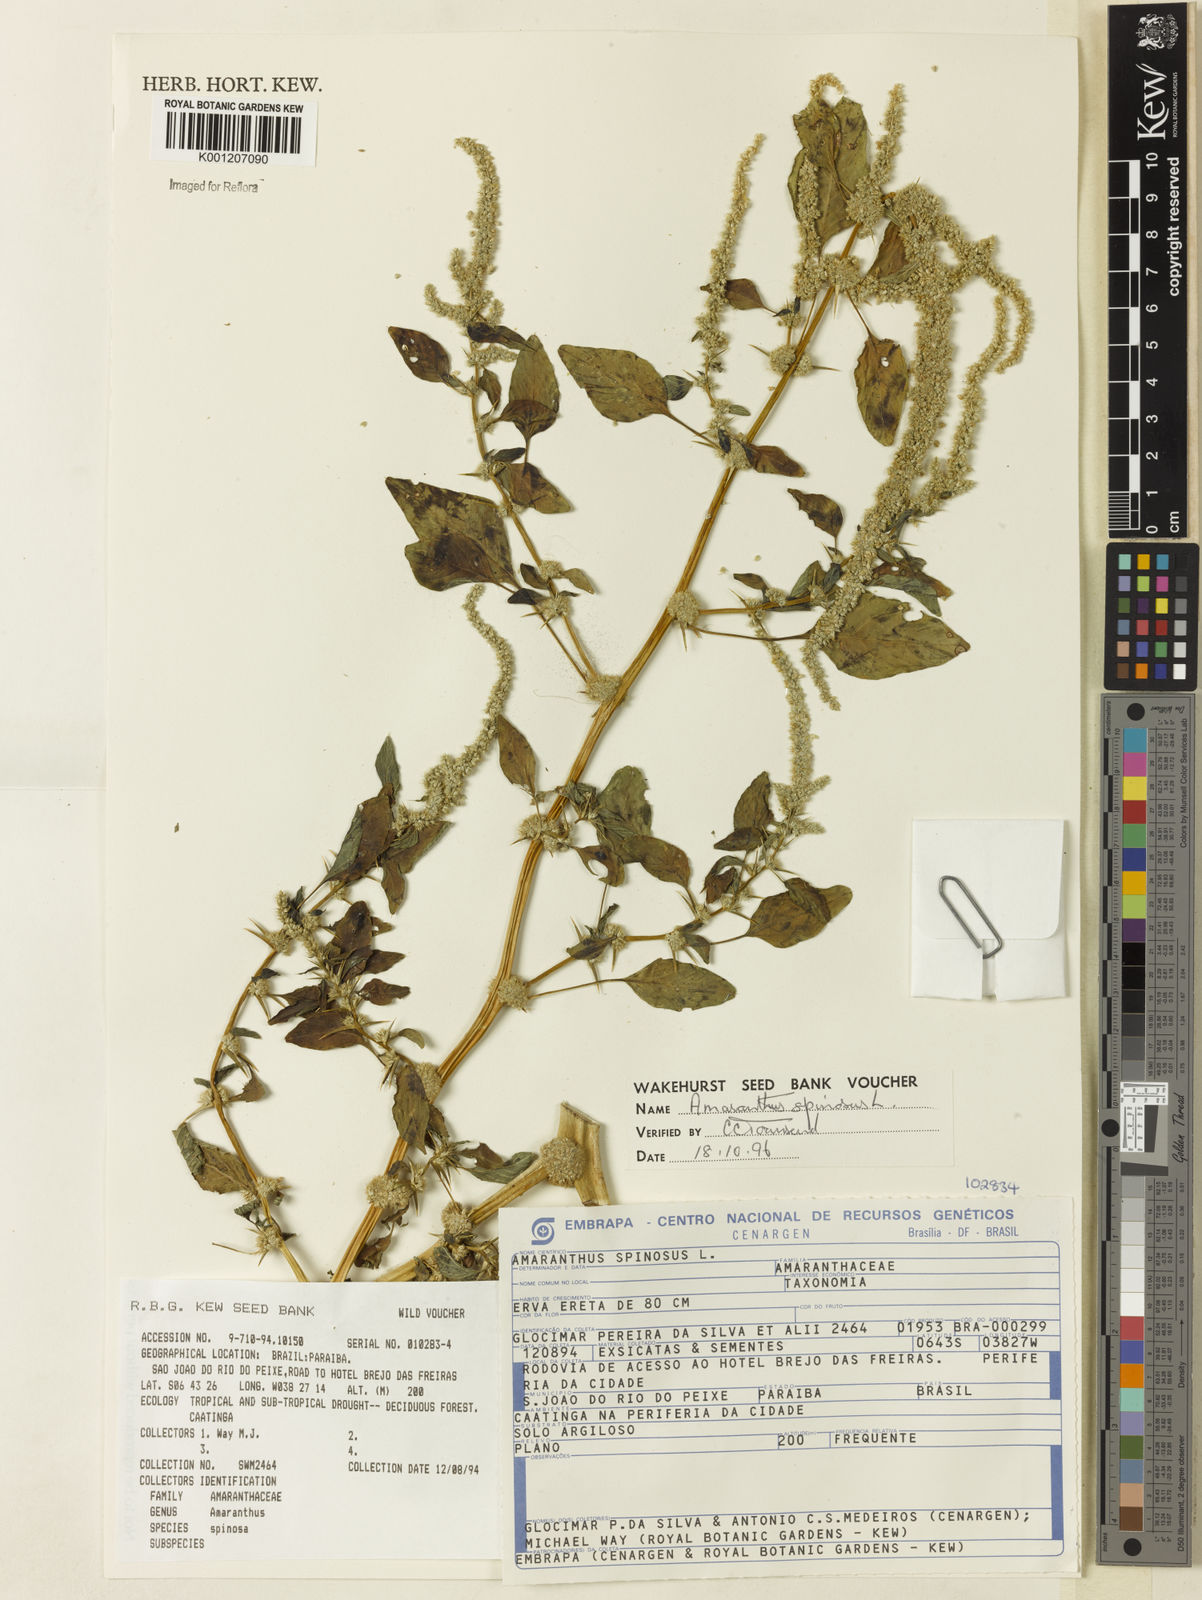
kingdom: Plantae
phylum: Tracheophyta
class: Magnoliopsida
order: Caryophyllales
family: Amaranthaceae
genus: Amaranthus
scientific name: Amaranthus spinosus
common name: Spiny amaranth
